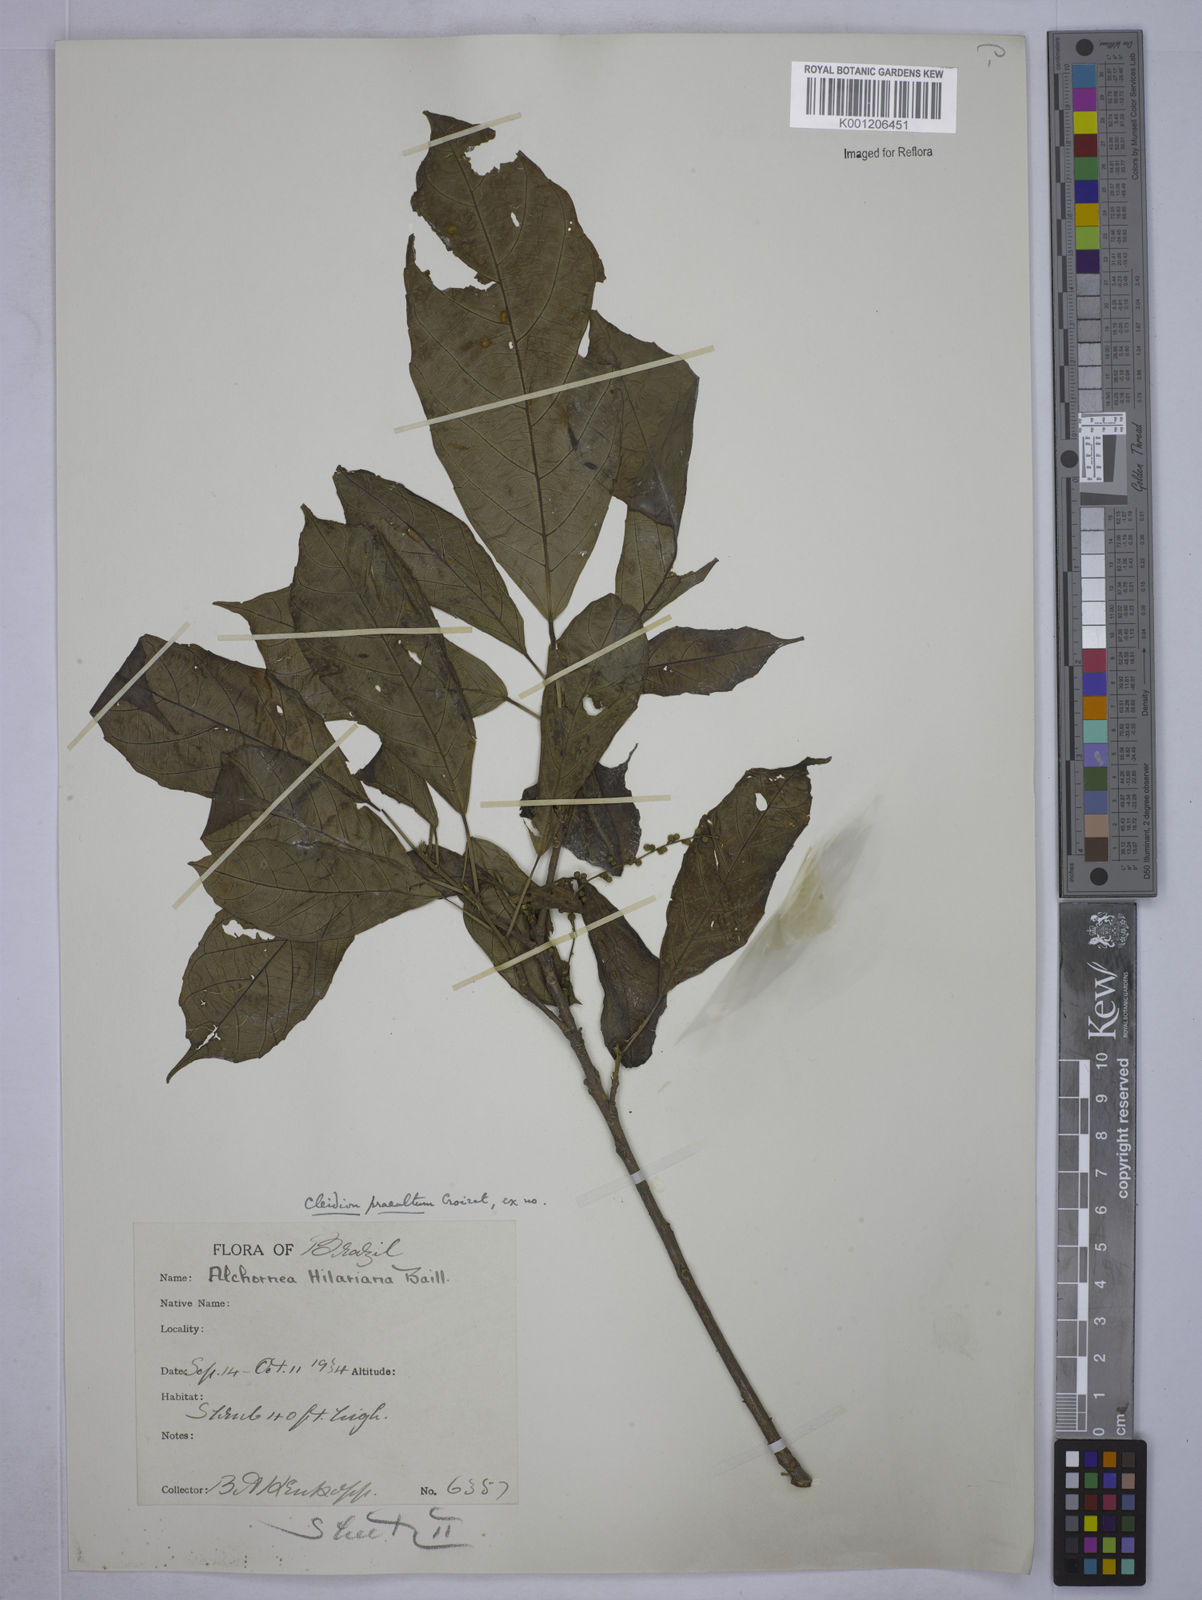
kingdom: Plantae
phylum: Tracheophyta
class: Magnoliopsida
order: Malpighiales
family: Euphorbiaceae
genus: Conceveiba
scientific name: Conceveiba praealta
